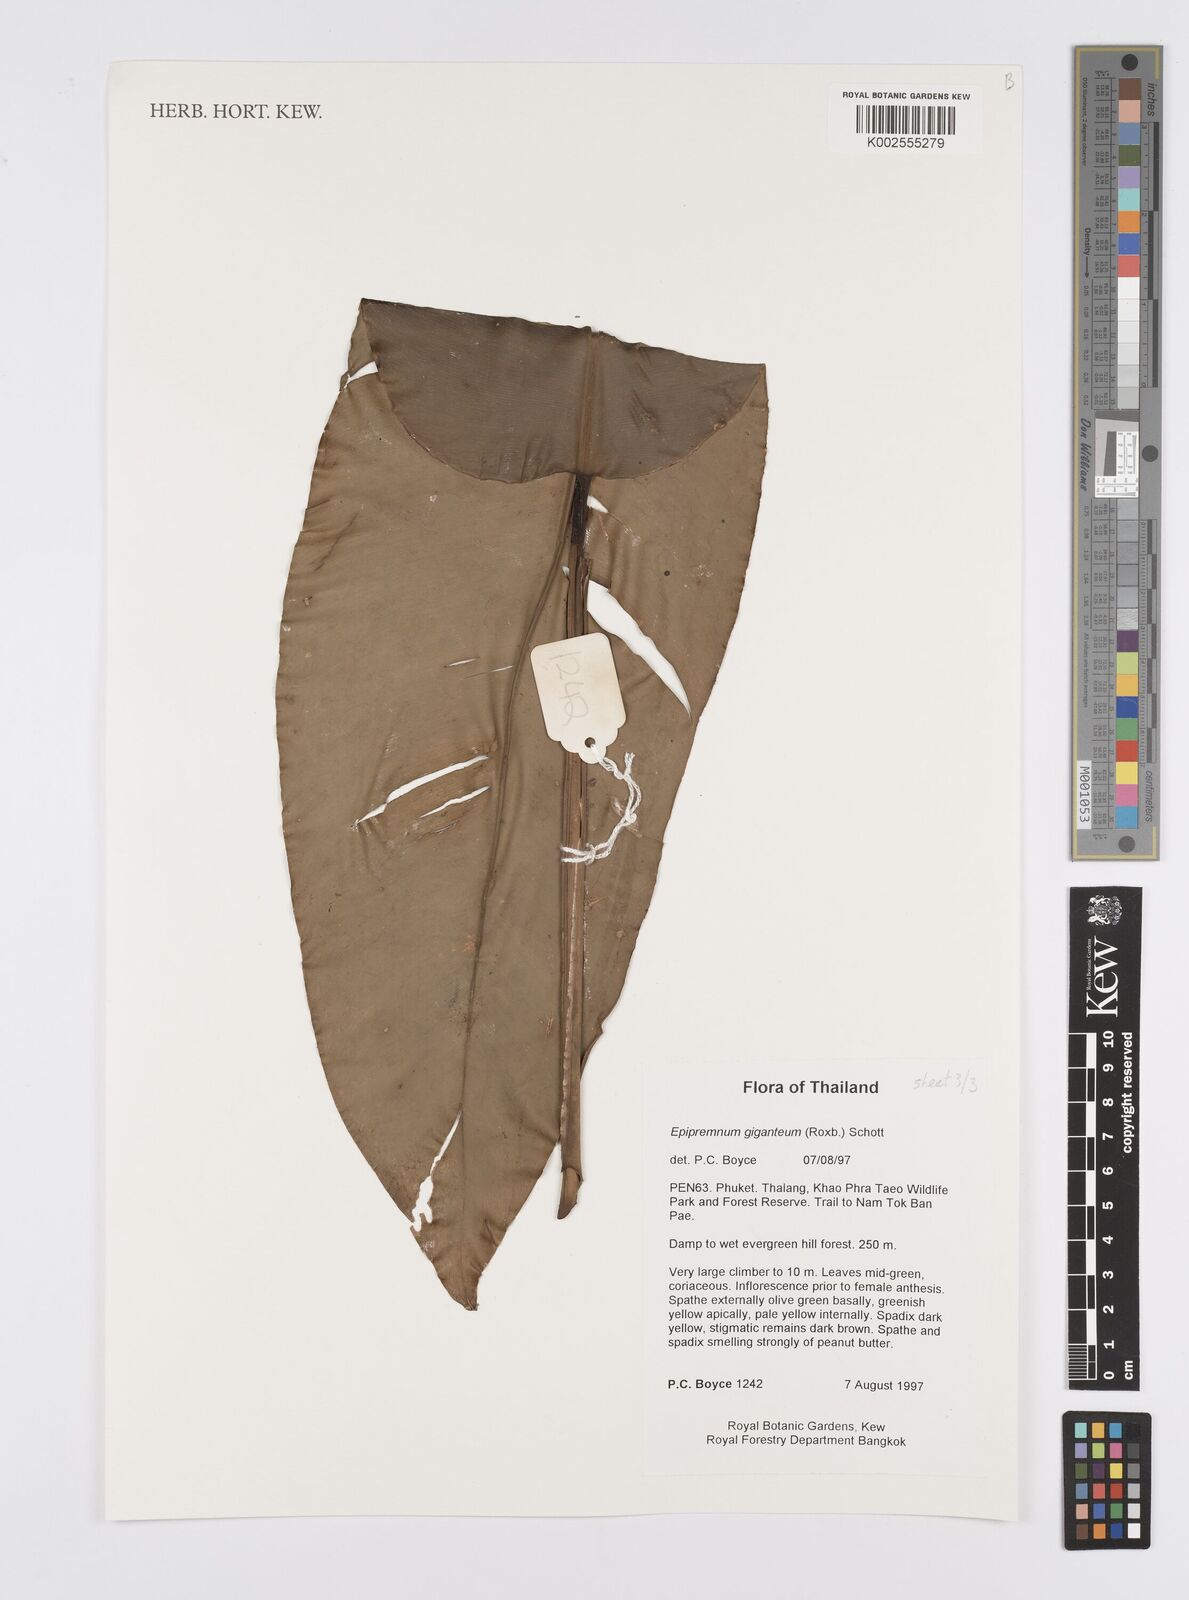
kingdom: Plantae
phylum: Tracheophyta
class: Liliopsida
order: Alismatales
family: Araceae
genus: Epipremnum
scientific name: Epipremnum giganteum
